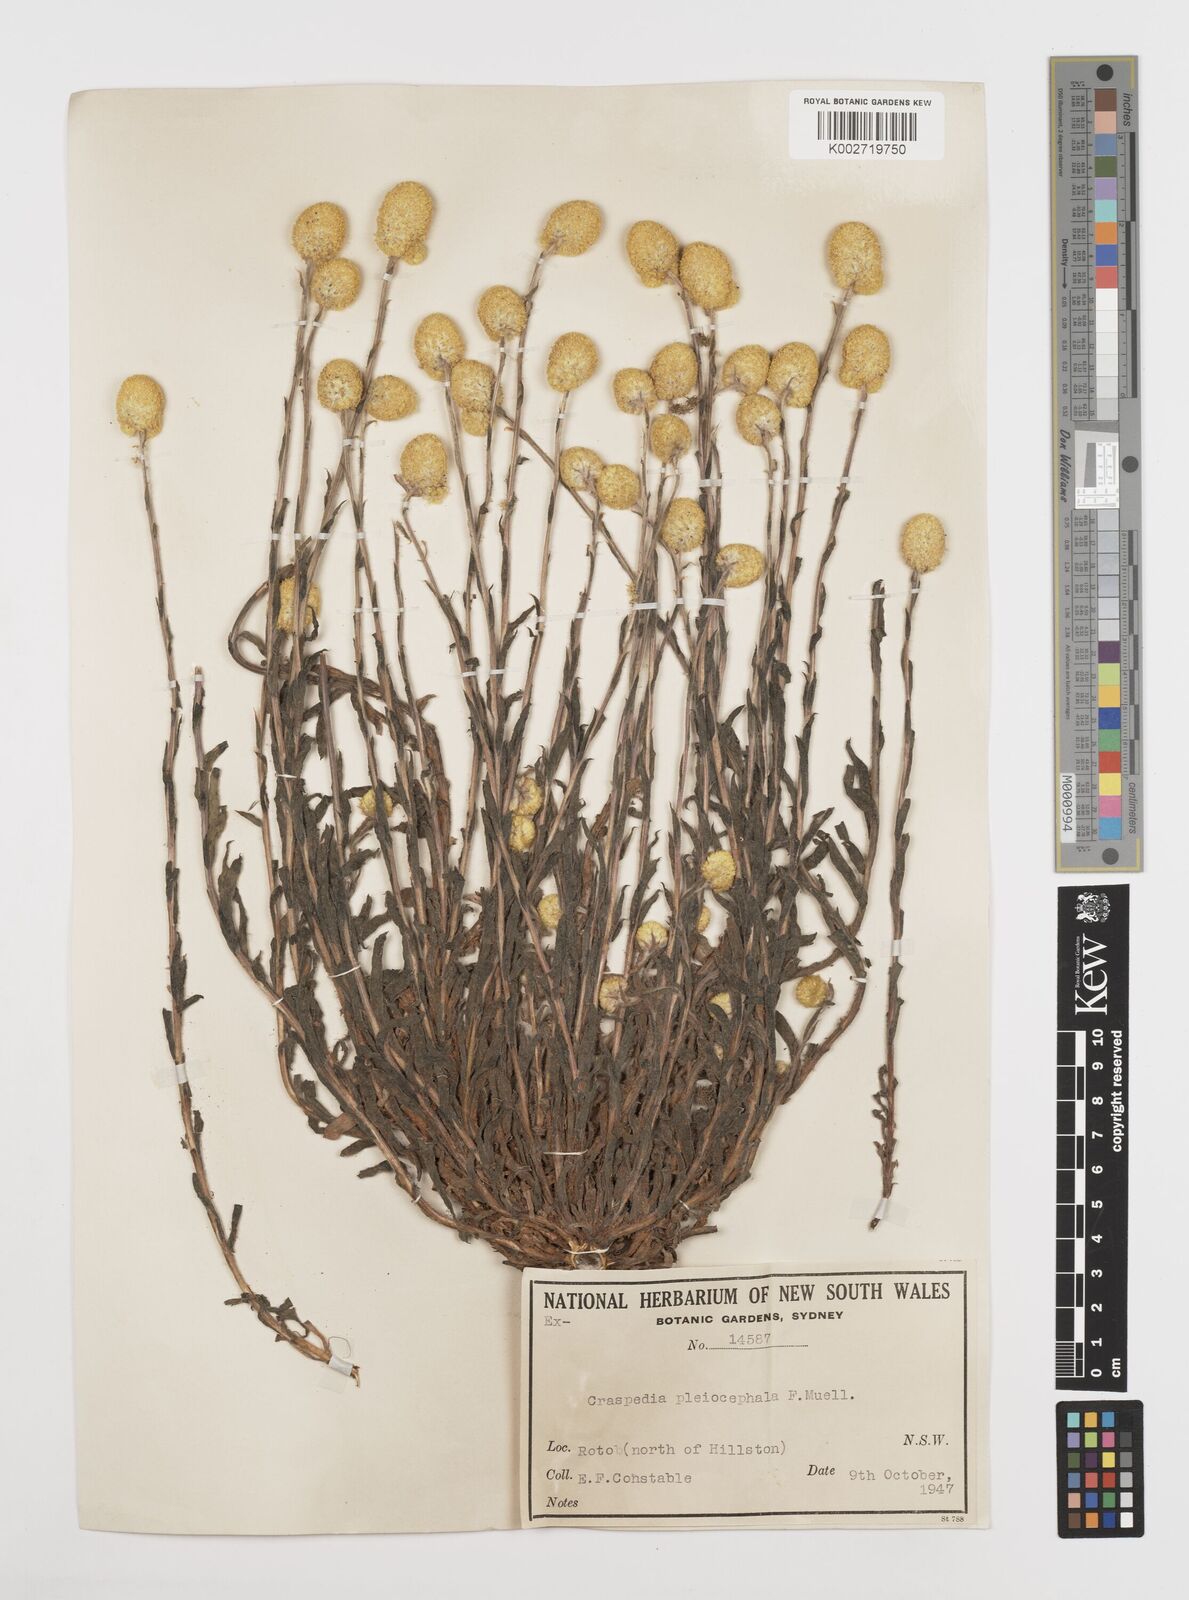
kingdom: Plantae
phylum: Tracheophyta
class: Magnoliopsida
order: Asterales
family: Asteraceae
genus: Pycnosorus
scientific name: Pycnosorus pleiocephalus
